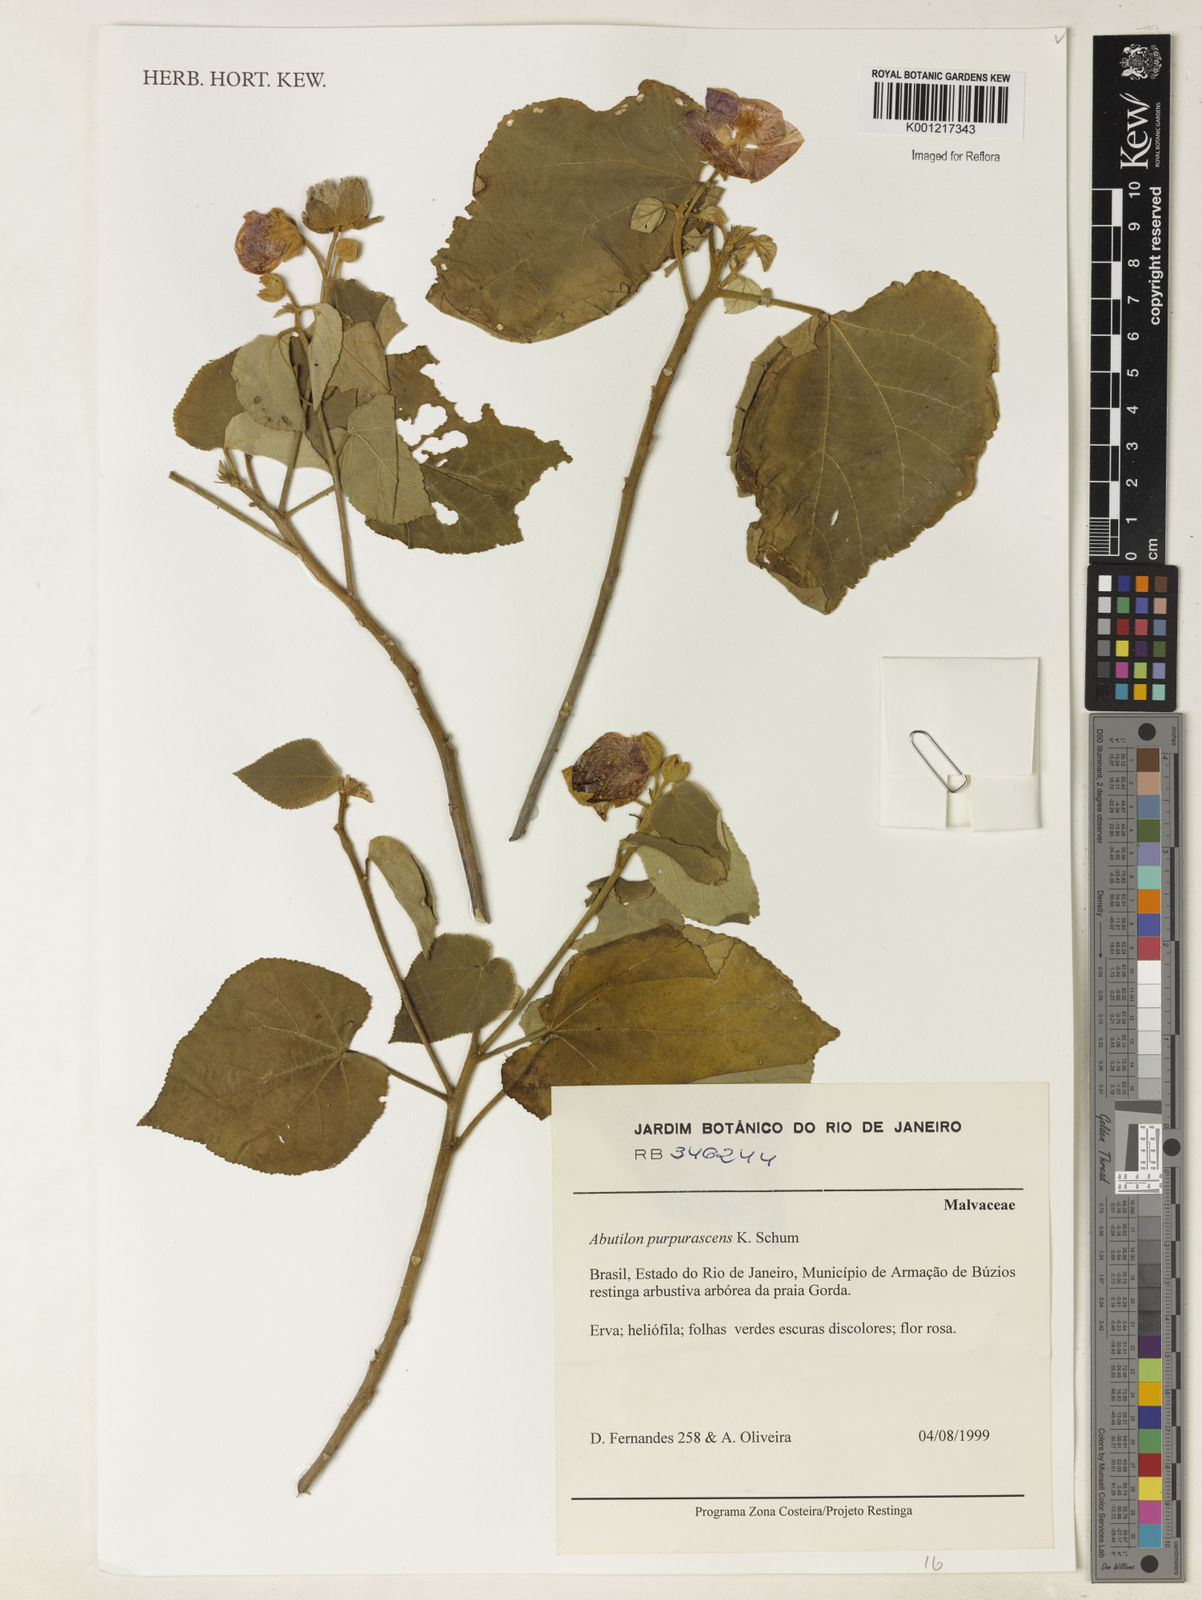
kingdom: Plantae
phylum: Tracheophyta
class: Magnoliopsida
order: Malvales
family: Malvaceae
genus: Bakeridesia
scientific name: Bakeridesia esculenta
